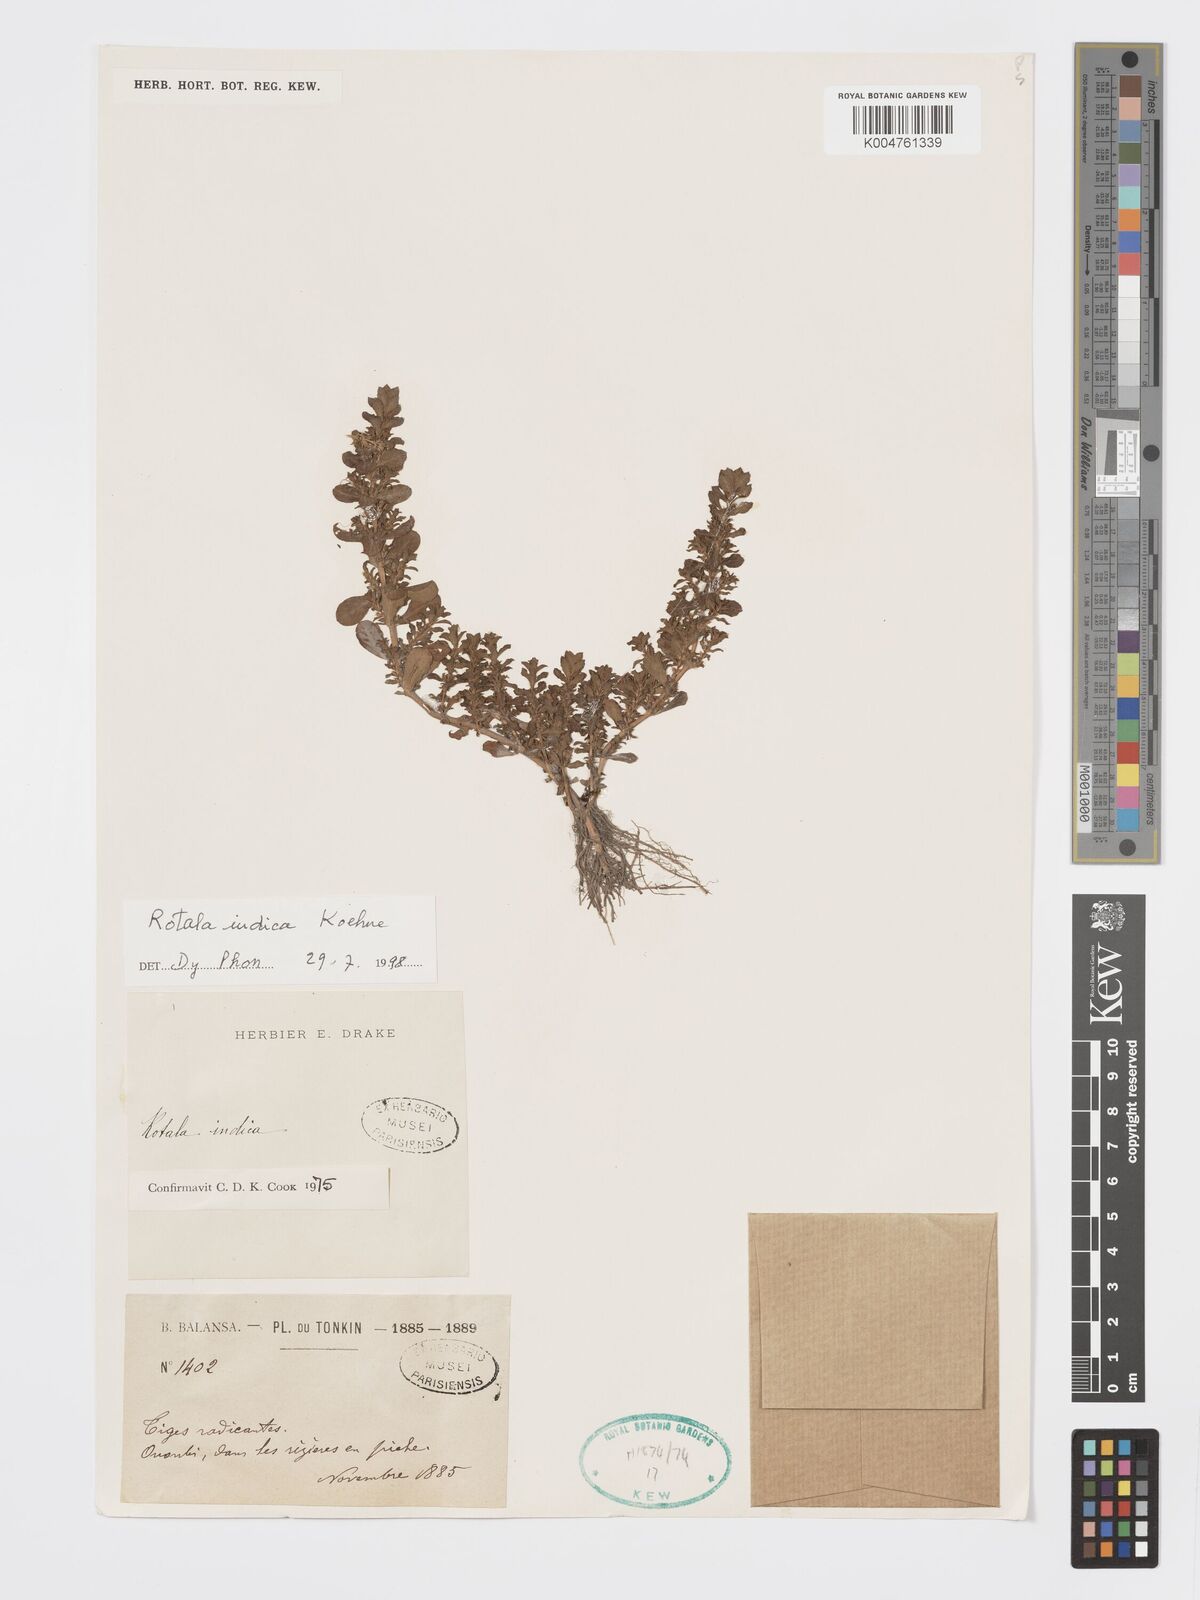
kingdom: Plantae
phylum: Tracheophyta
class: Magnoliopsida
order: Myrtales
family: Lythraceae
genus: Rotala
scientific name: Rotala indica
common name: Indian toothcup
